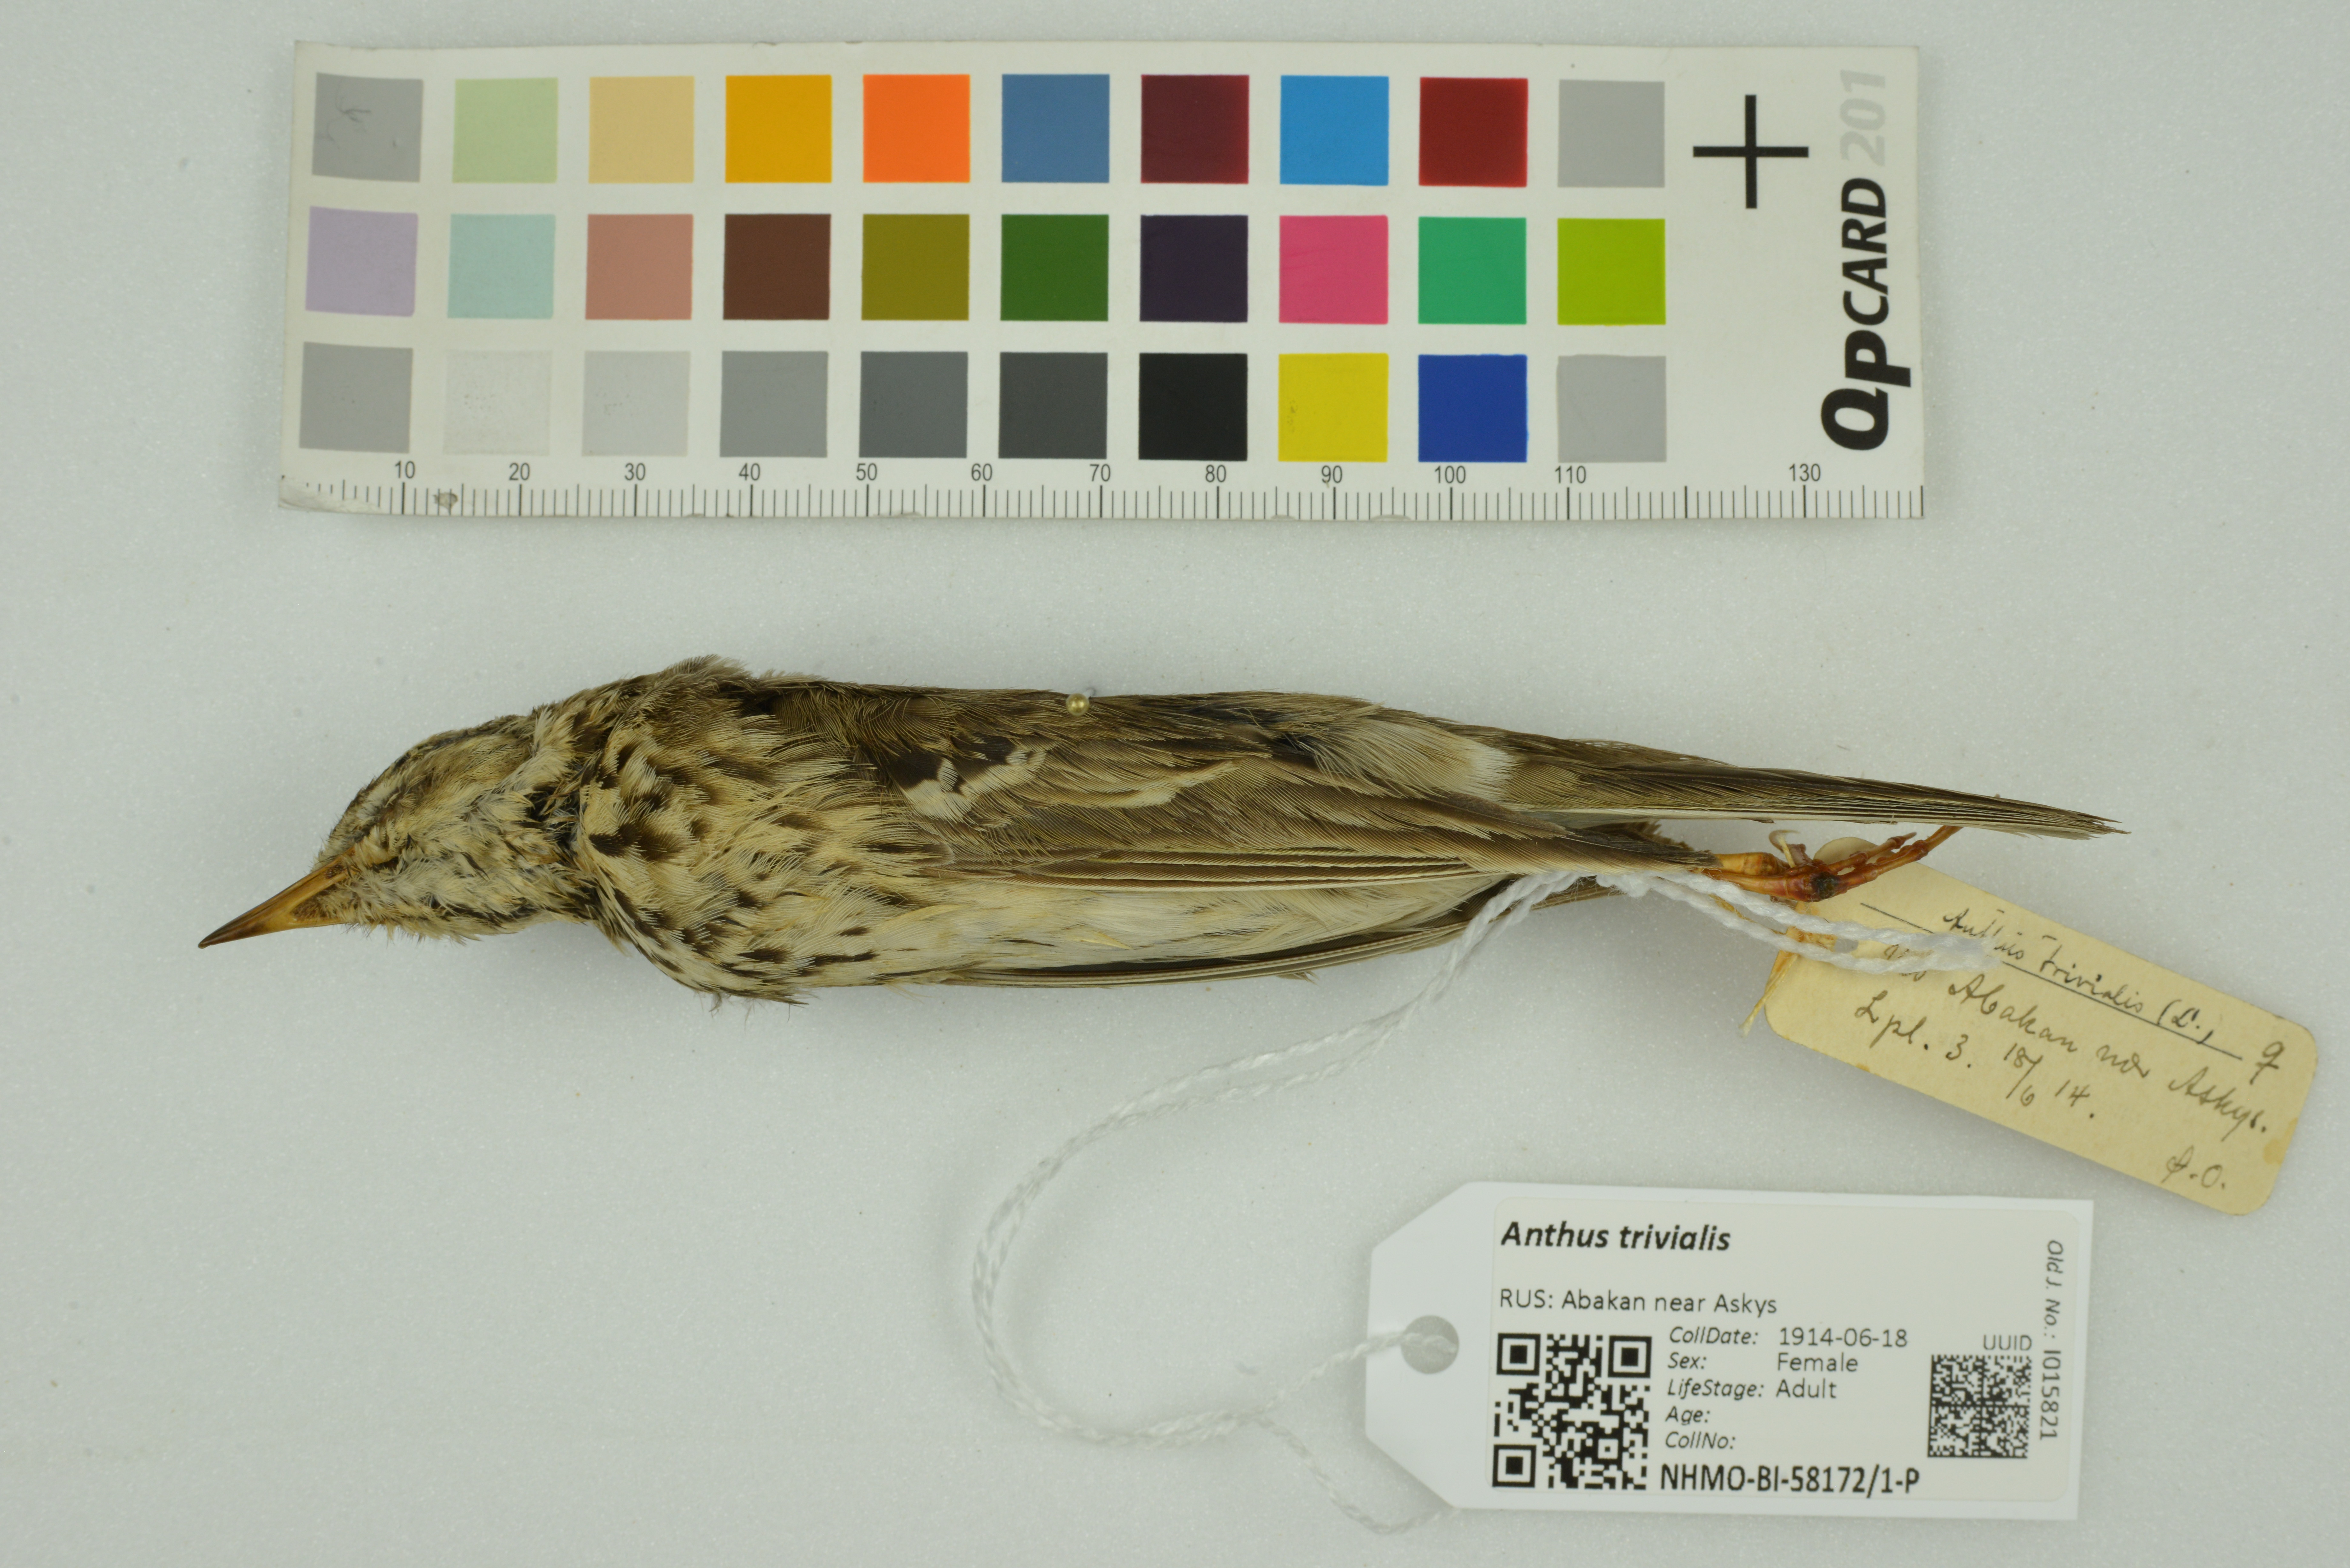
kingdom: Animalia
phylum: Chordata
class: Aves
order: Passeriformes
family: Motacillidae
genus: Anthus
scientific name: Anthus trivialis
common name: Tree pipit
